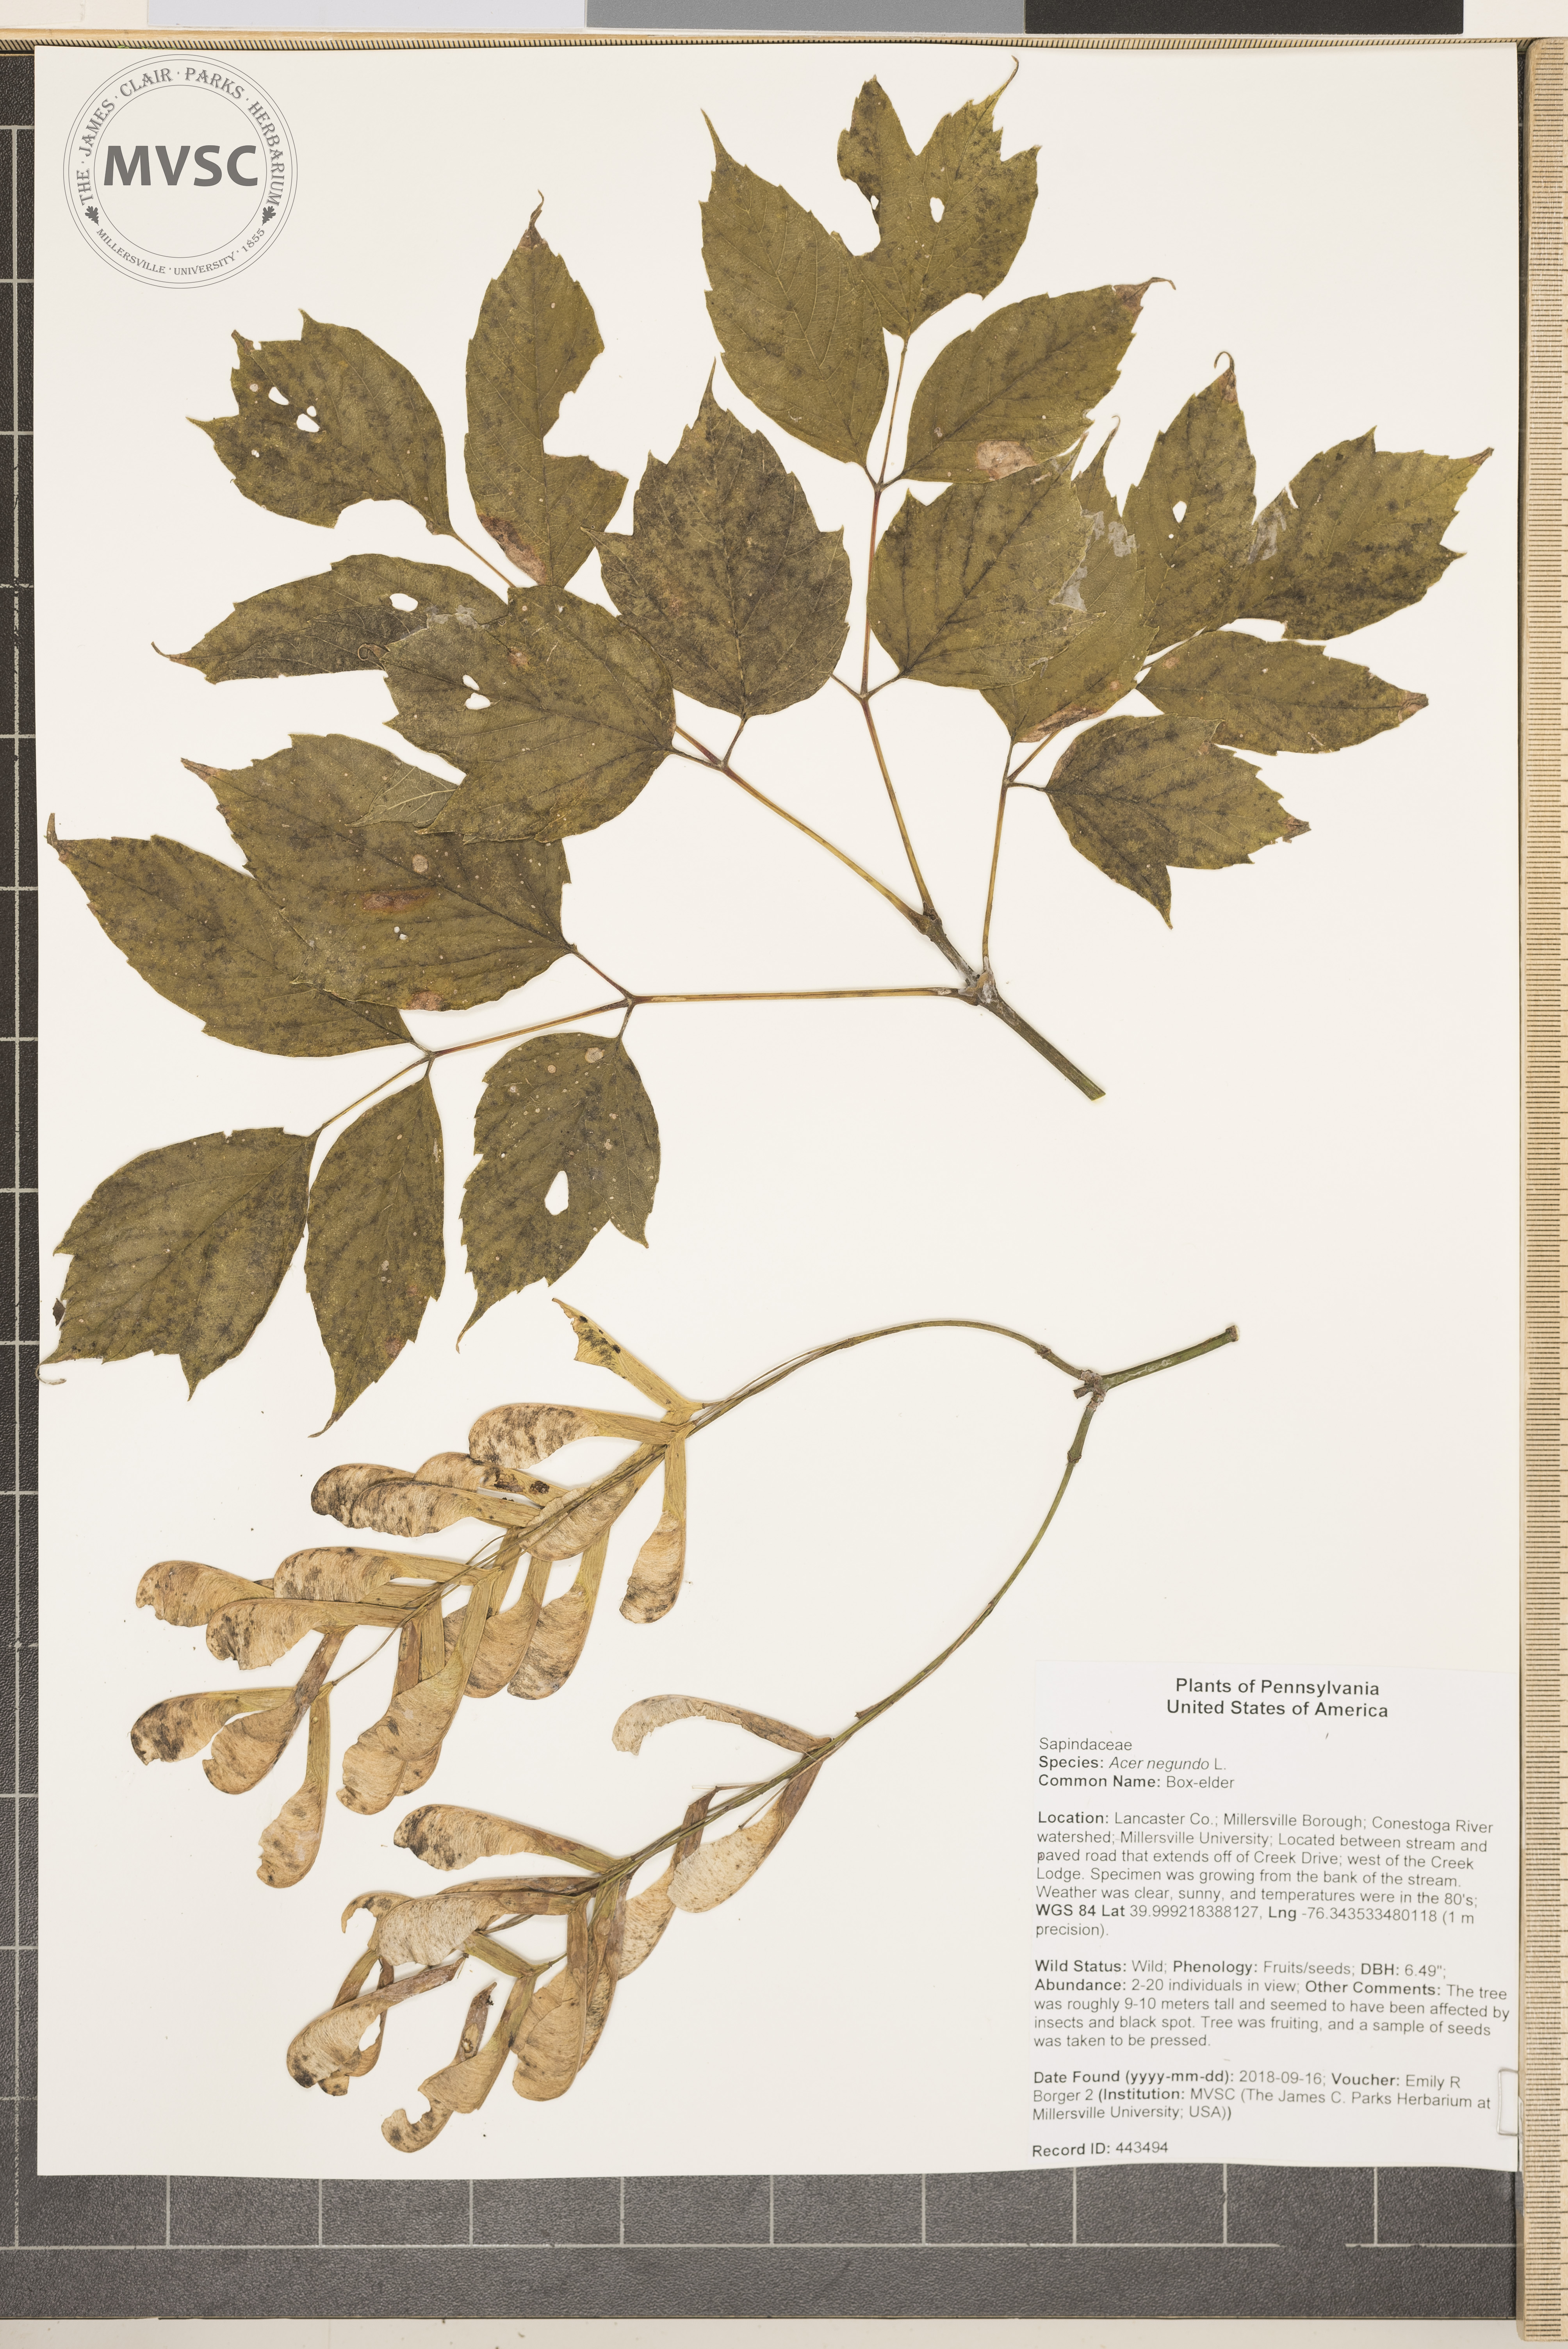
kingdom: Plantae
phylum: Tracheophyta
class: Magnoliopsida
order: Sapindales
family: Sapindaceae
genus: Acer
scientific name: Acer negundo
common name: Box-elder
